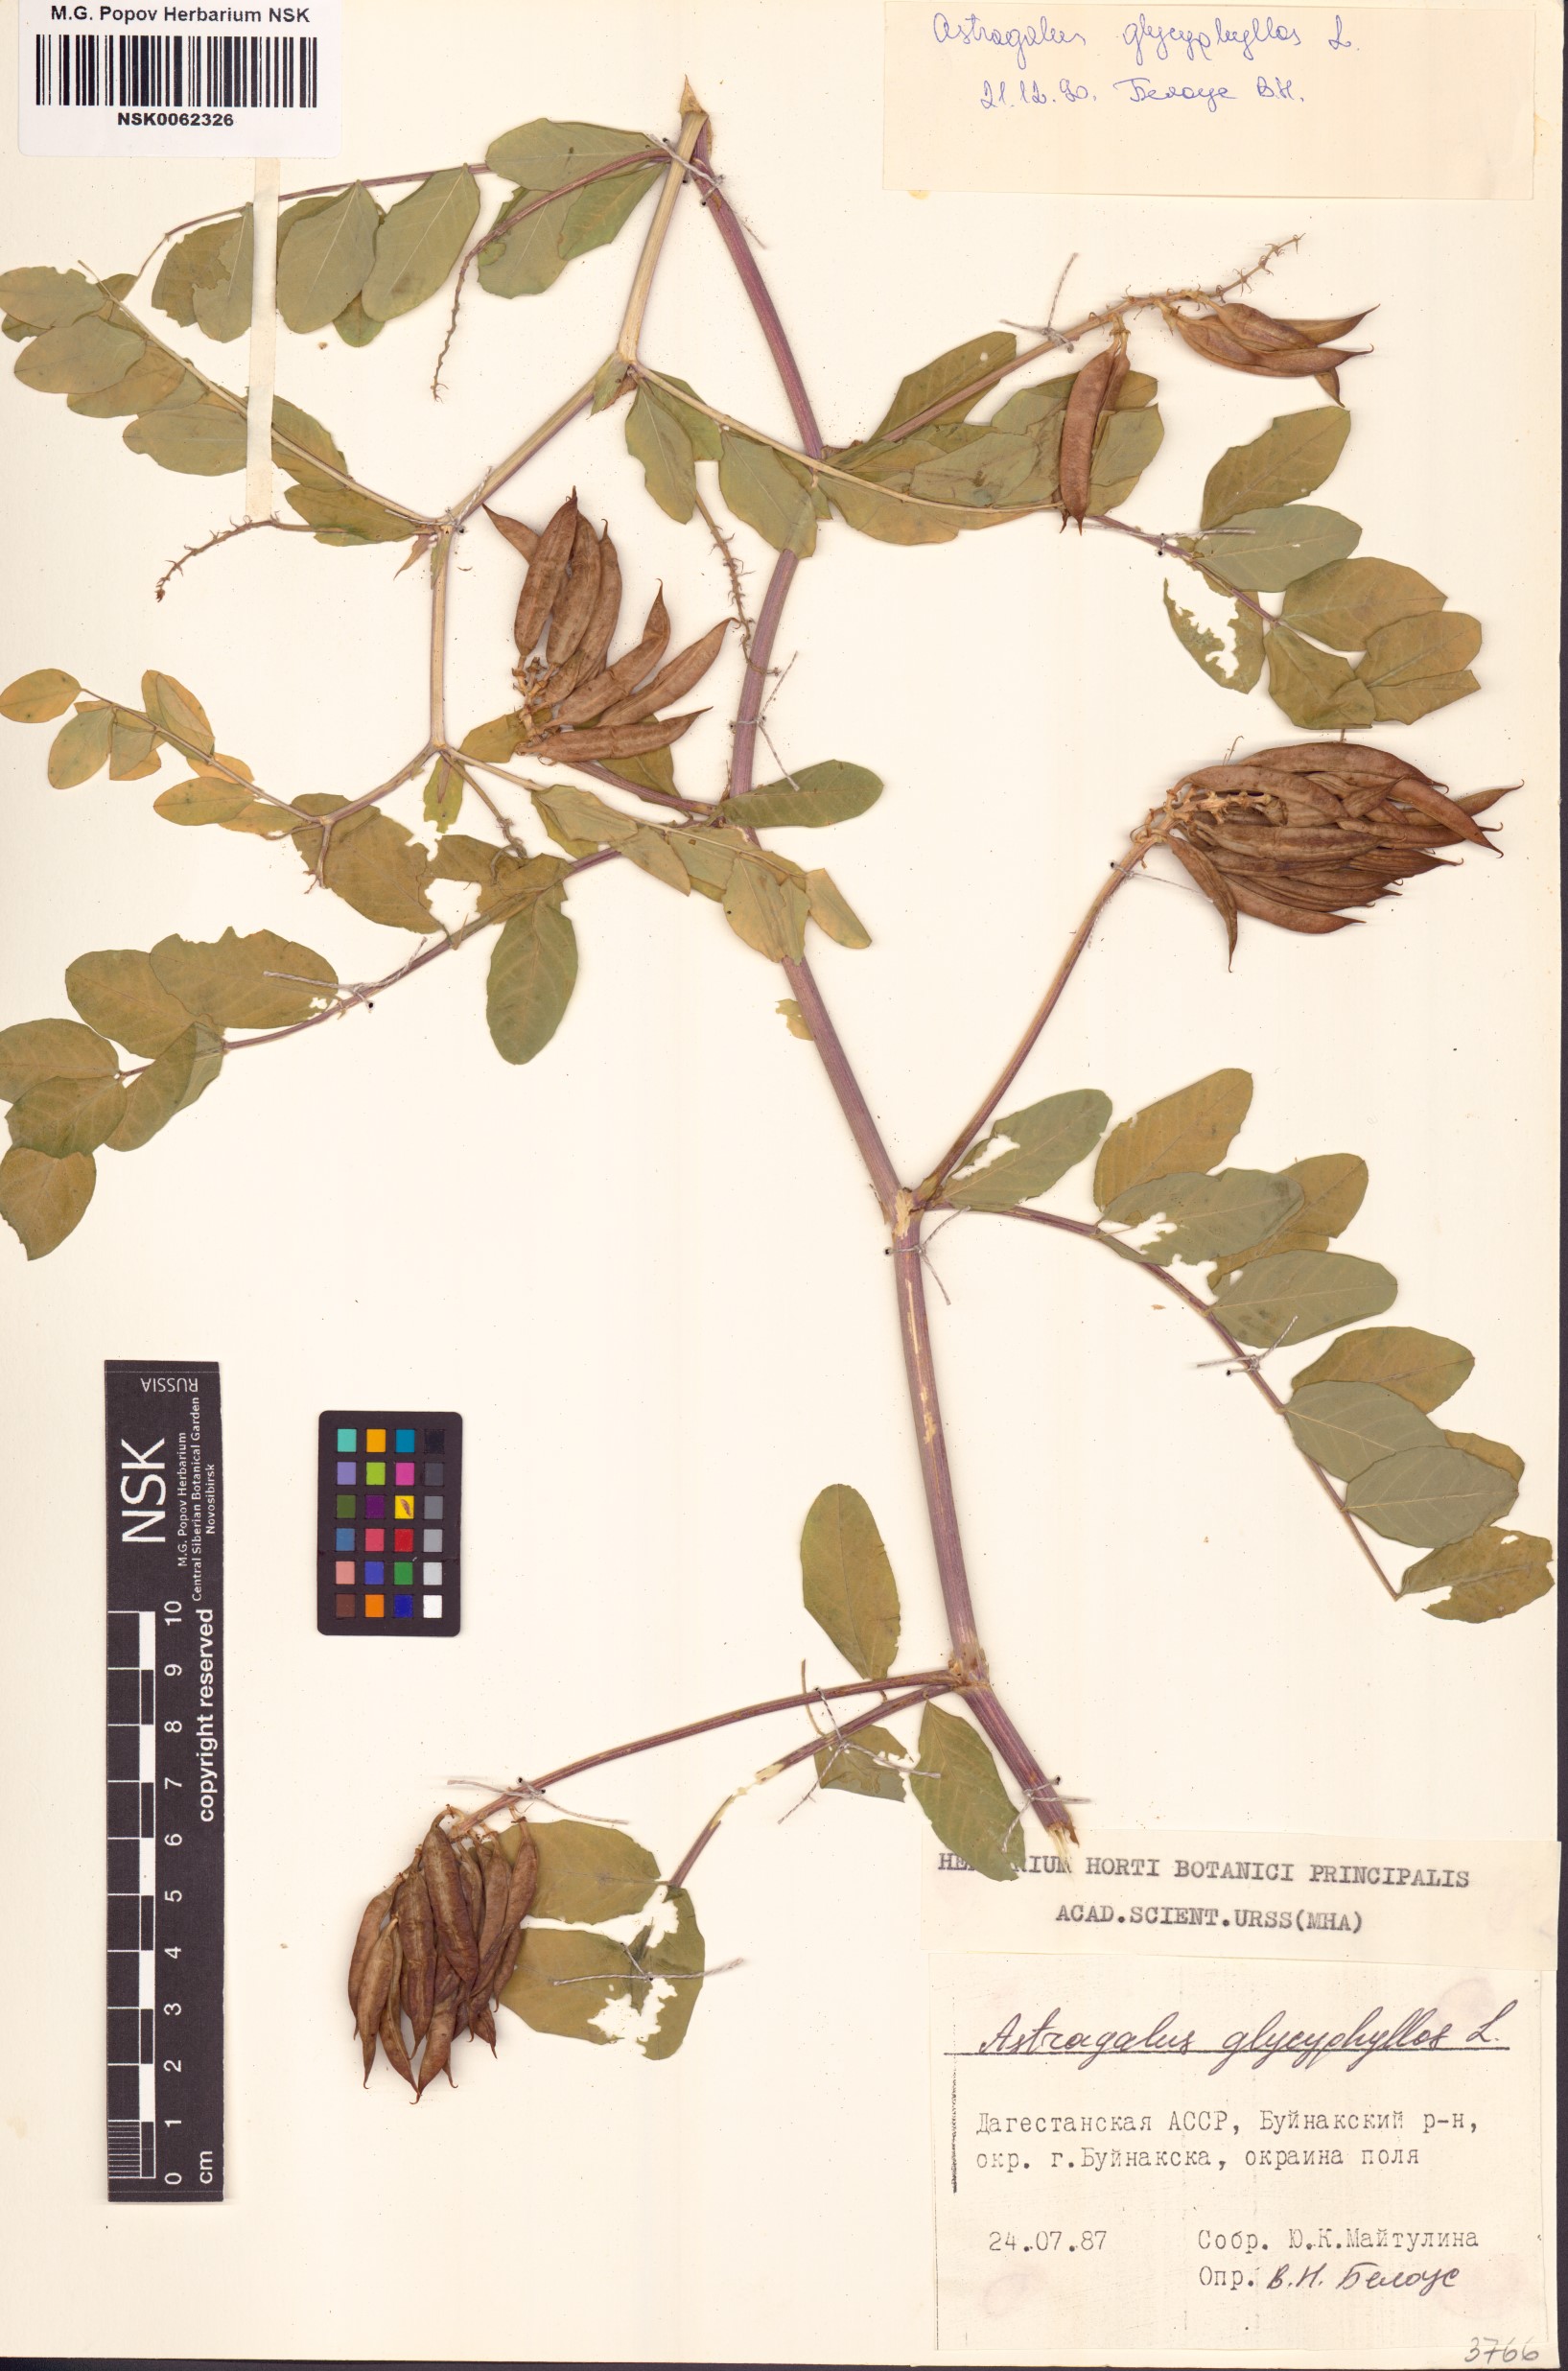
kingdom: Plantae
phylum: Tracheophyta
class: Magnoliopsida
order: Fabales
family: Fabaceae
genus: Astragalus
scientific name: Astragalus glycyphyllos
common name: Wild liquorice
